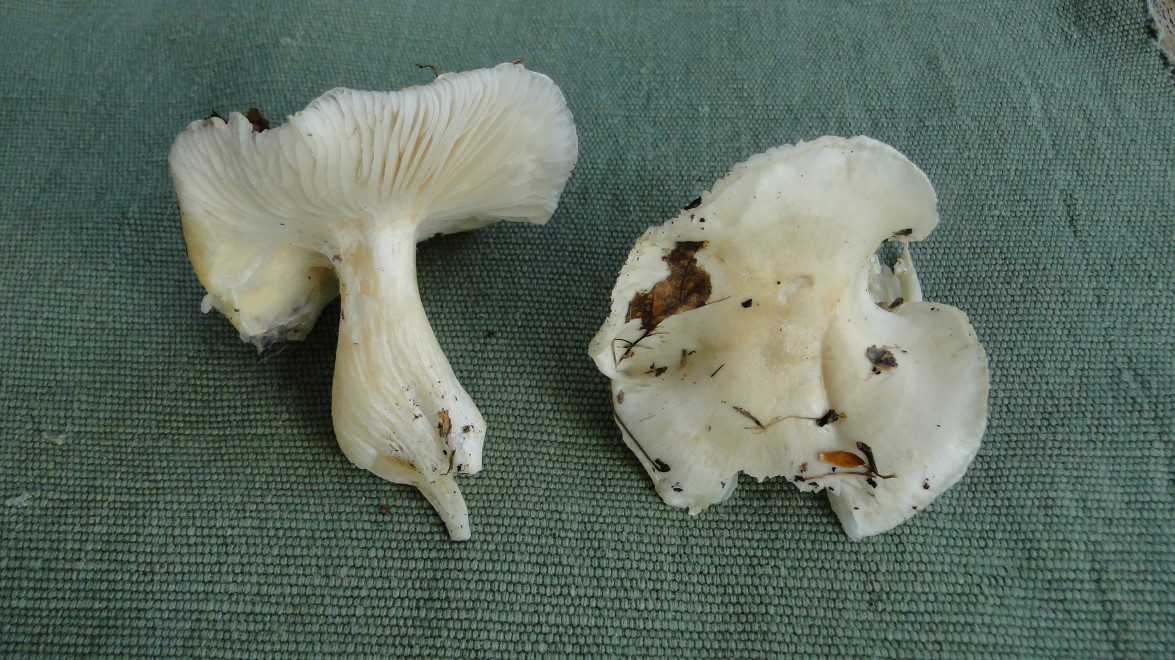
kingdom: Fungi
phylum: Basidiomycota
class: Agaricomycetes
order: Agaricales
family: Hygrophoraceae
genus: Hygrophorus
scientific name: Hygrophorus penarius
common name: spiselig sneglehat
